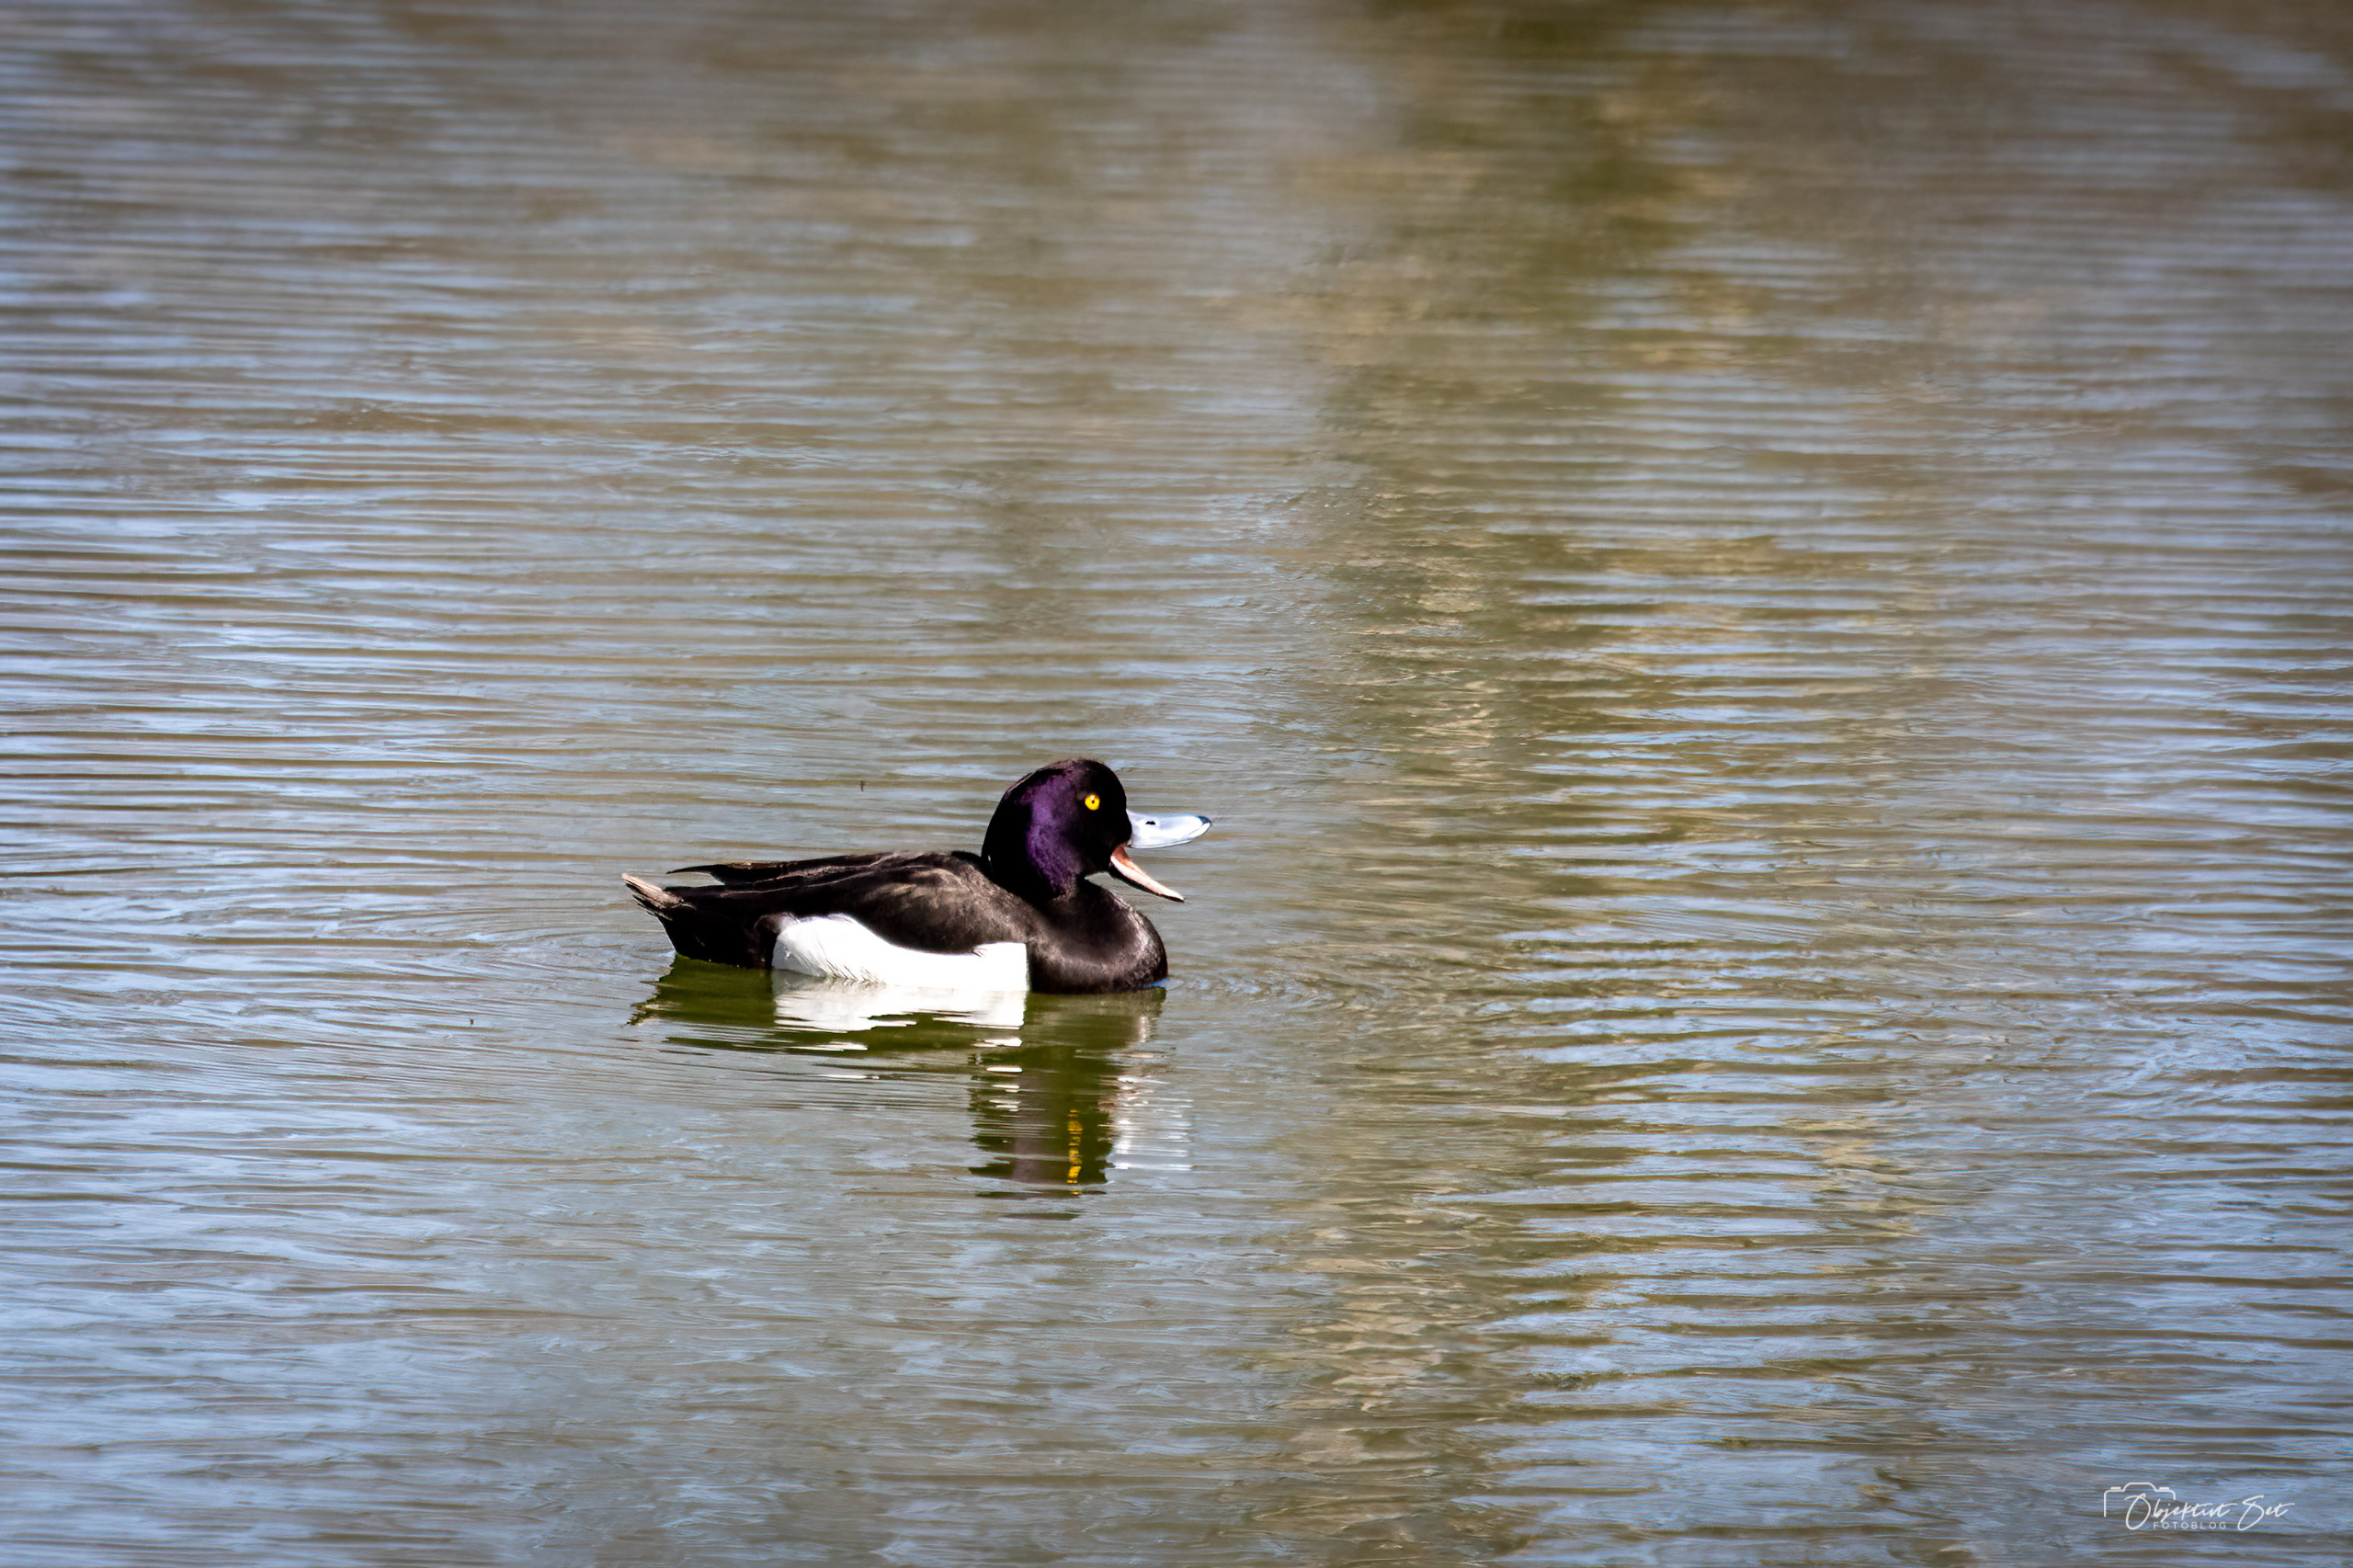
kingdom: Animalia
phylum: Chordata
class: Aves
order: Anseriformes
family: Anatidae
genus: Aythya
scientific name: Aythya fuligula
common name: Troldand
